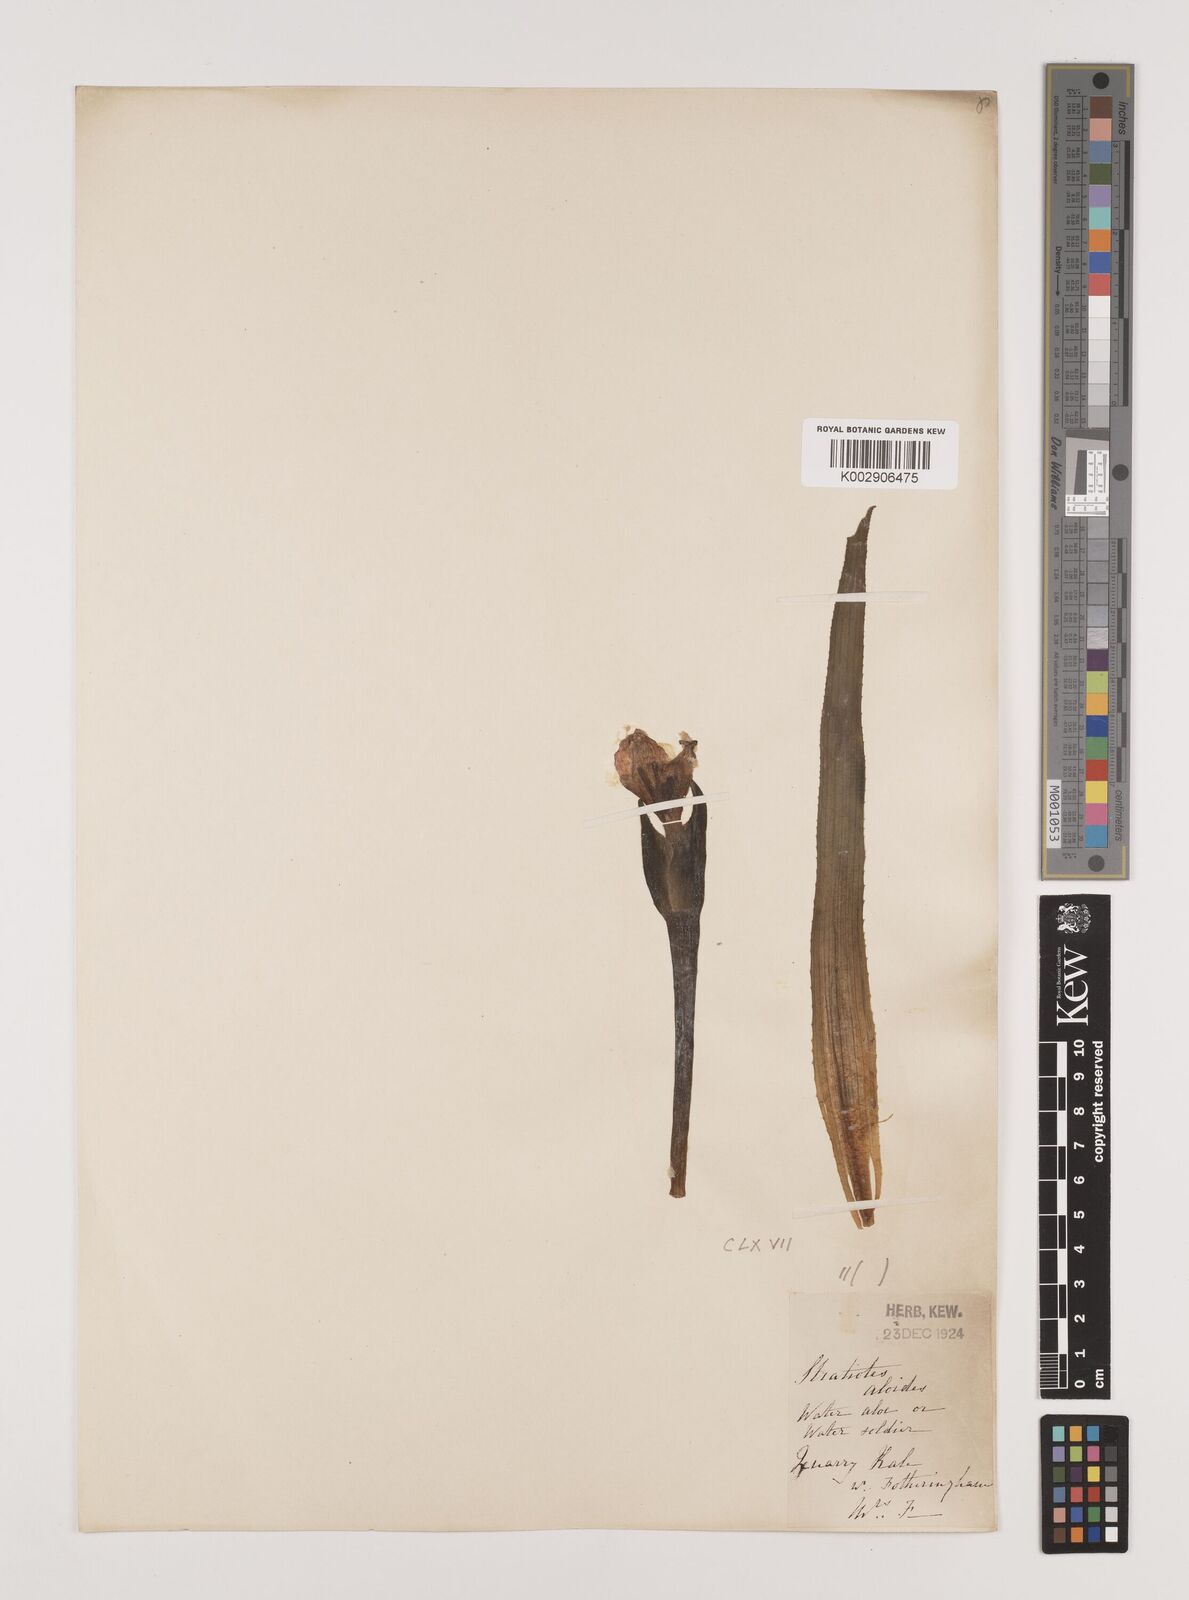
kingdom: Plantae
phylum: Tracheophyta
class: Liliopsida
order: Alismatales
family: Hydrocharitaceae
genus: Stratiotes
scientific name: Stratiotes aloides
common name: Water-soldier
